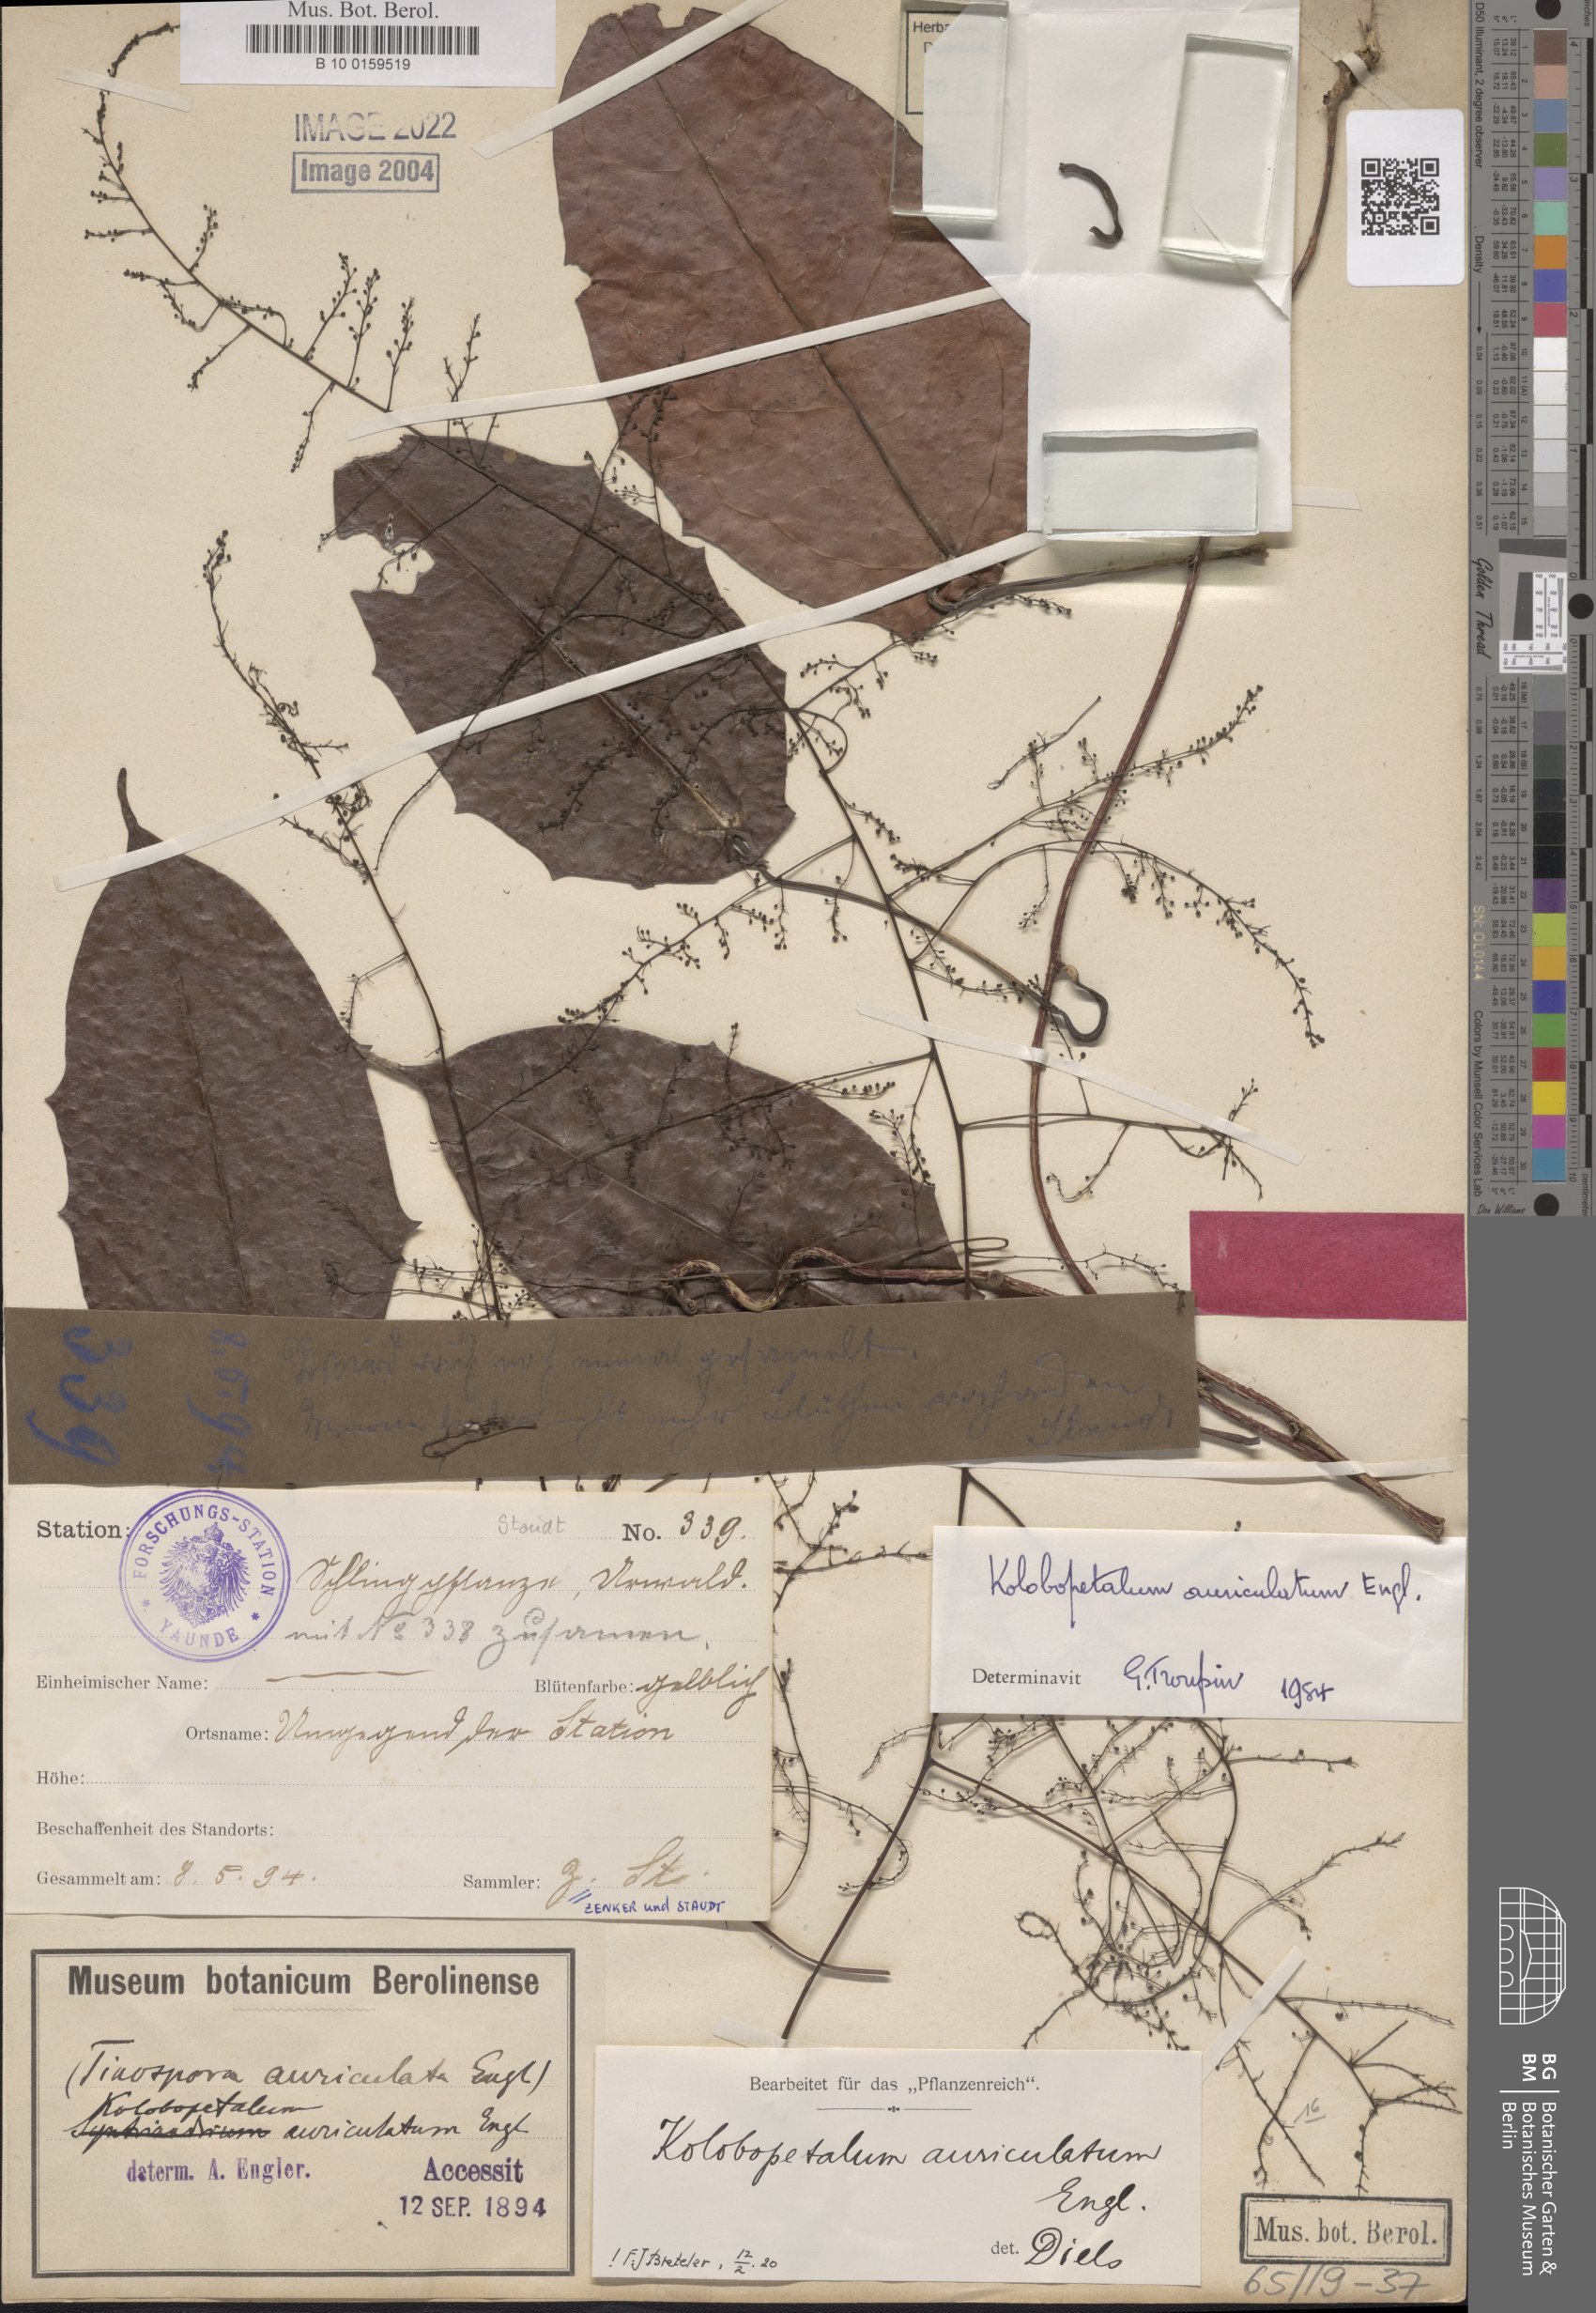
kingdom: Plantae
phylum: Tracheophyta
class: Magnoliopsida
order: Ranunculales
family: Menispermaceae
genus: Kolobopetalum
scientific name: Kolobopetalum auriculatum
